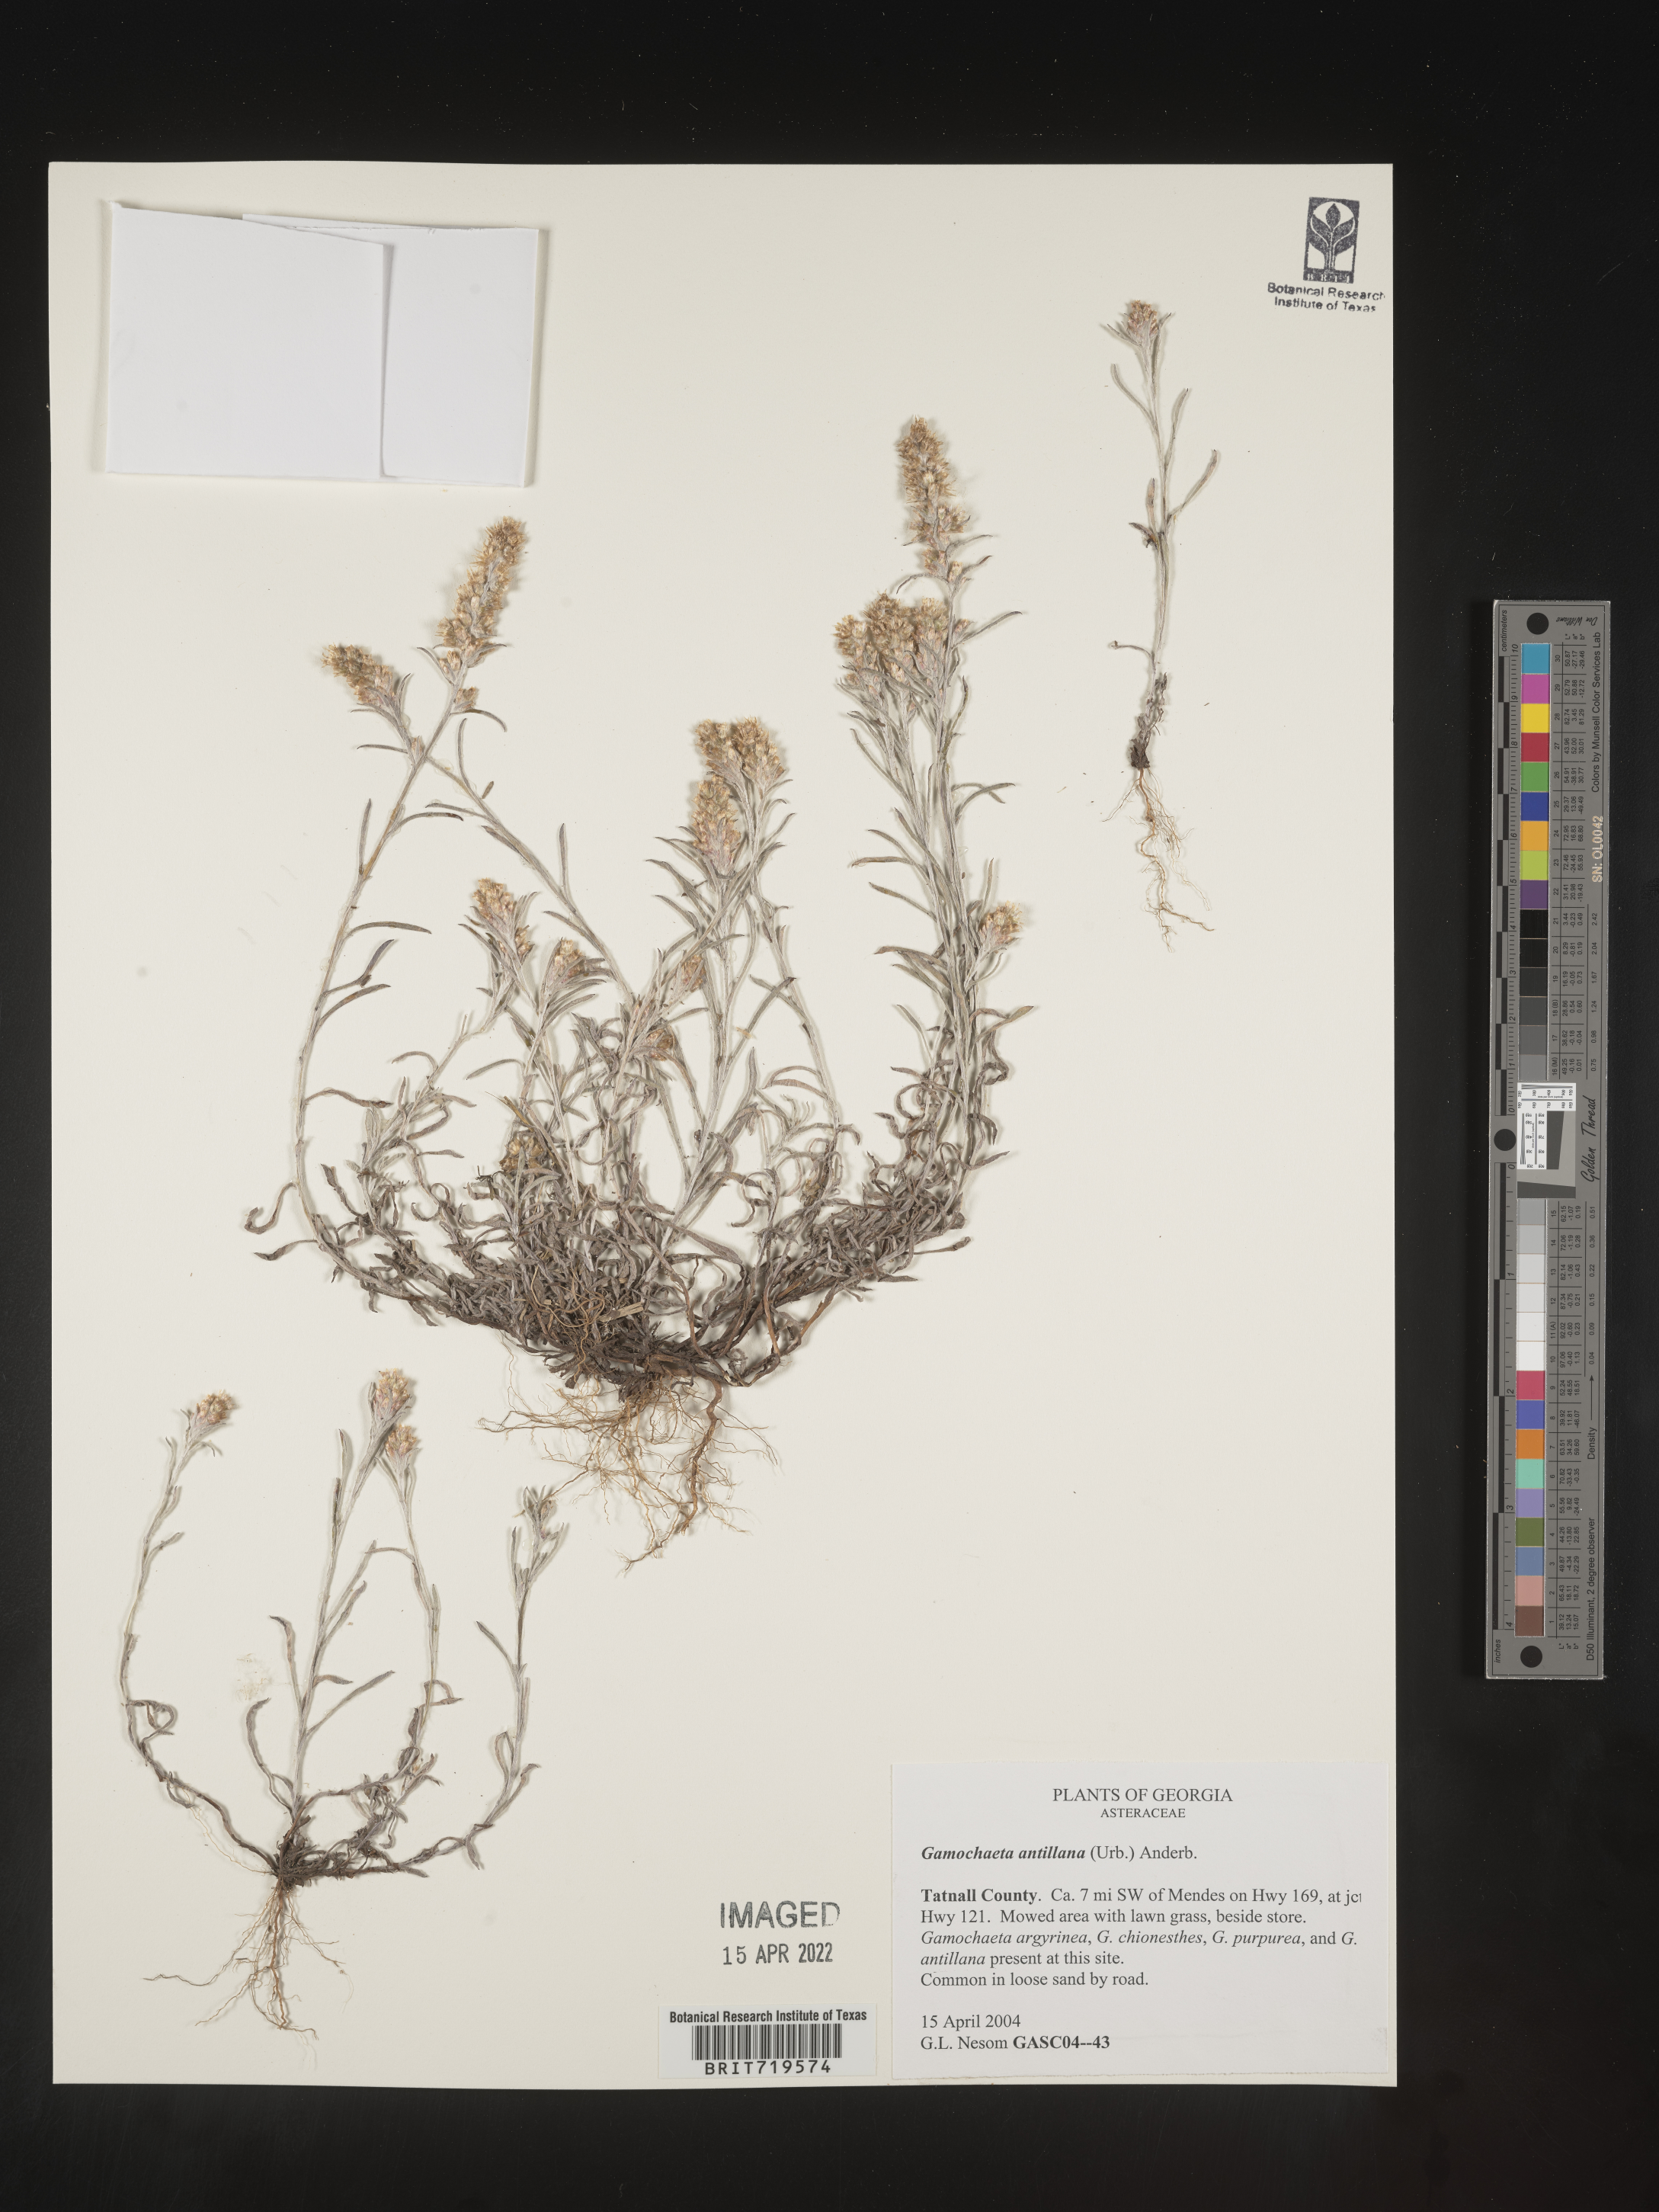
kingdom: Plantae
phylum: Tracheophyta
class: Magnoliopsida
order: Asterales
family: Asteraceae
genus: Gamochaeta
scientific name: Gamochaeta antillana
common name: Delicate everlasting
